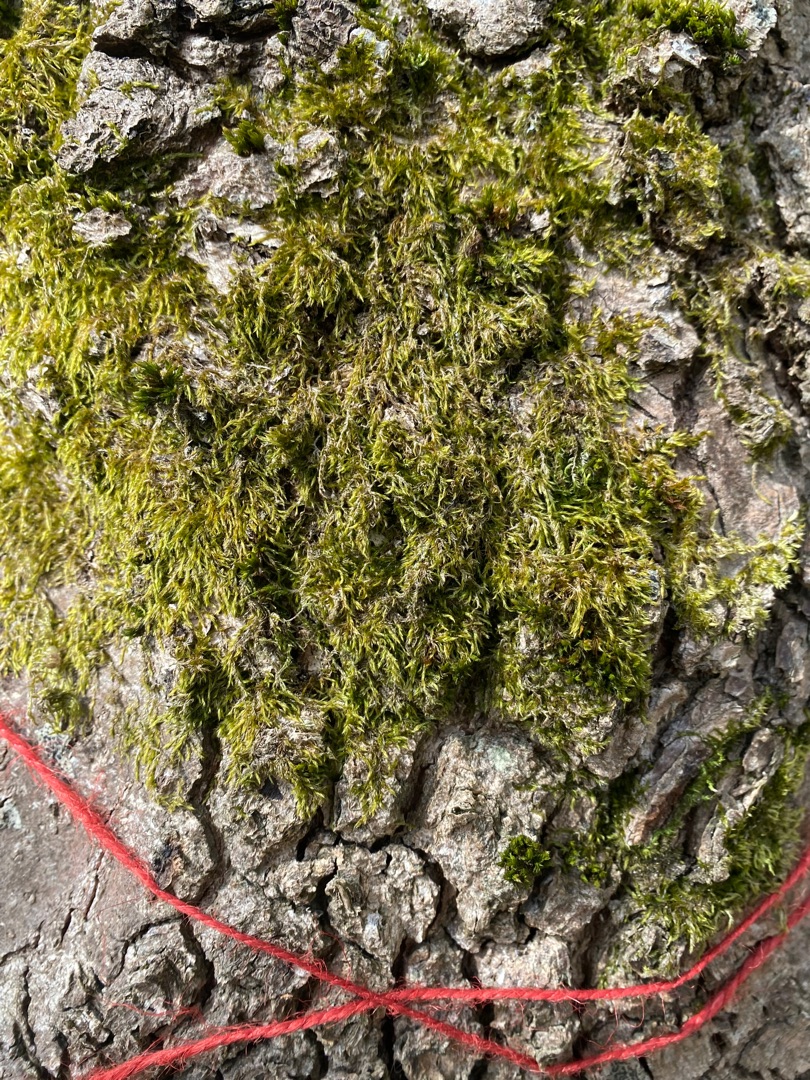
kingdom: Plantae
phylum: Bryophyta
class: Bryopsida
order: Hypnales
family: Hypnaceae
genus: Hypnum
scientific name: Hypnum
